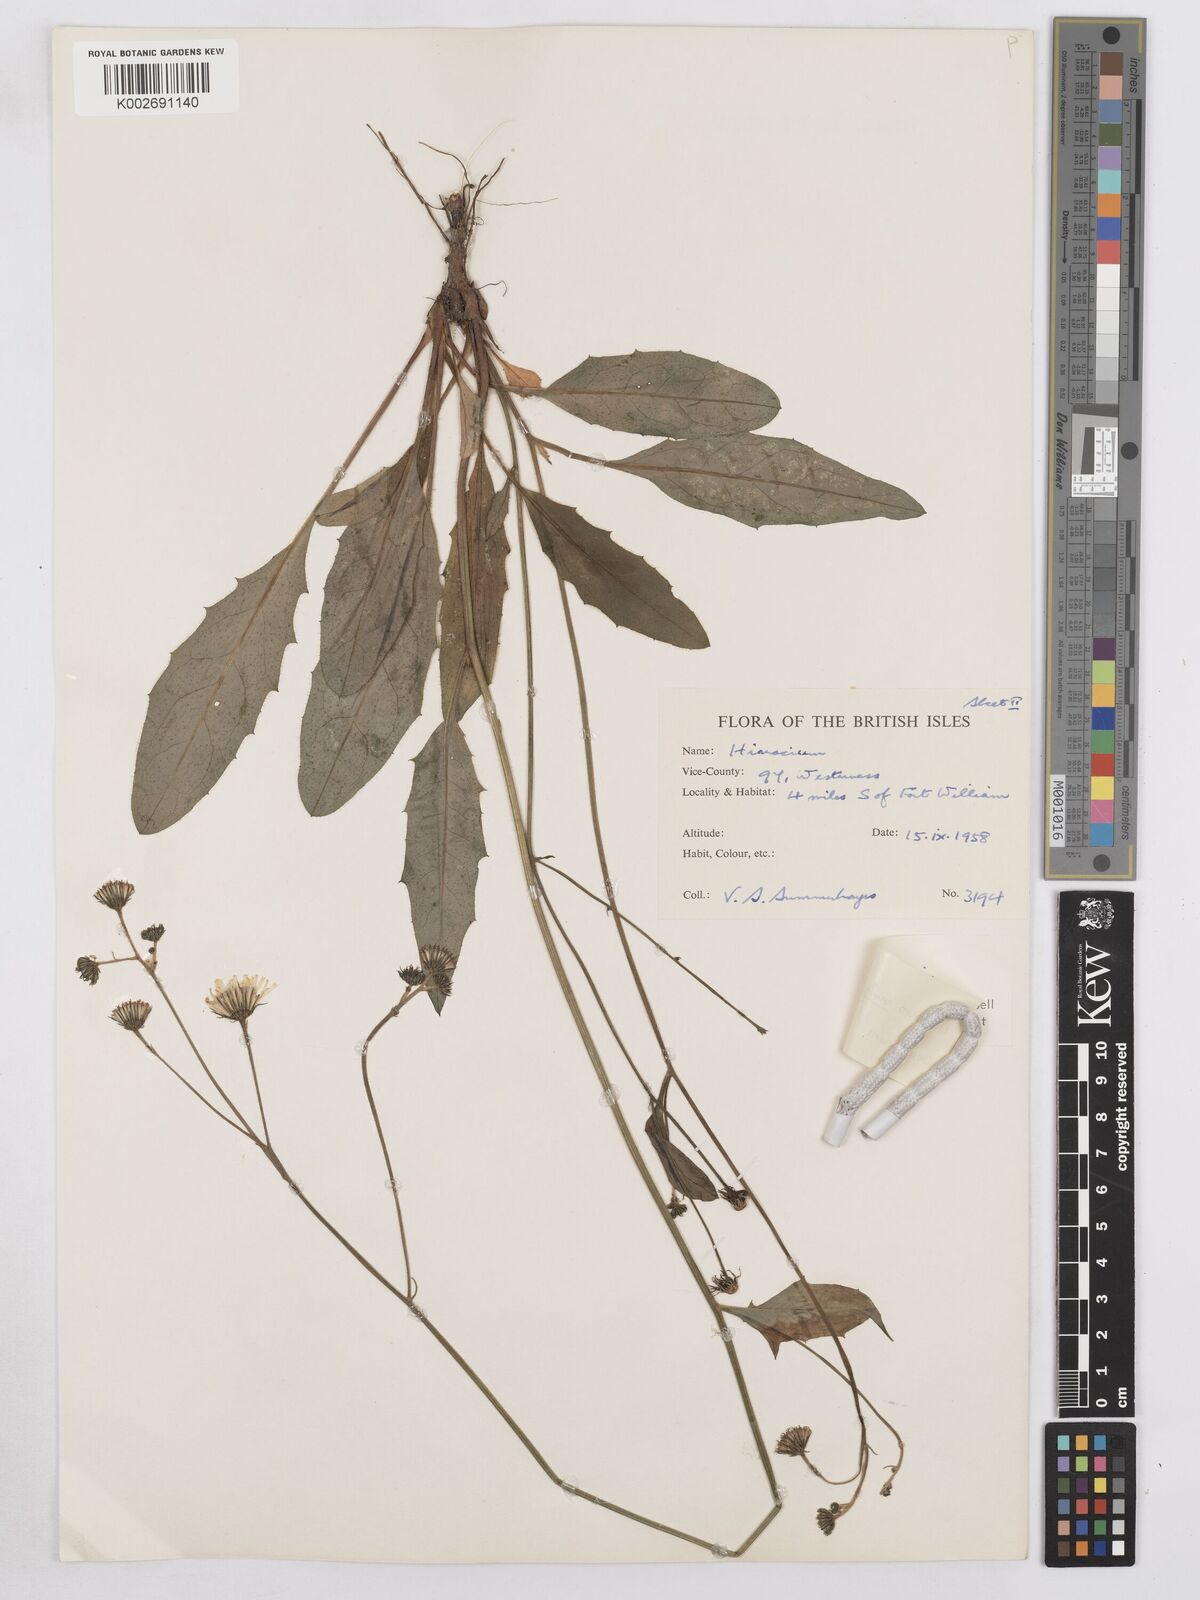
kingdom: Plantae
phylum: Tracheophyta
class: Magnoliopsida
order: Asterales
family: Asteraceae
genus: Hieracium
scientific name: Hieracium lachenalii
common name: Common hawkweed
